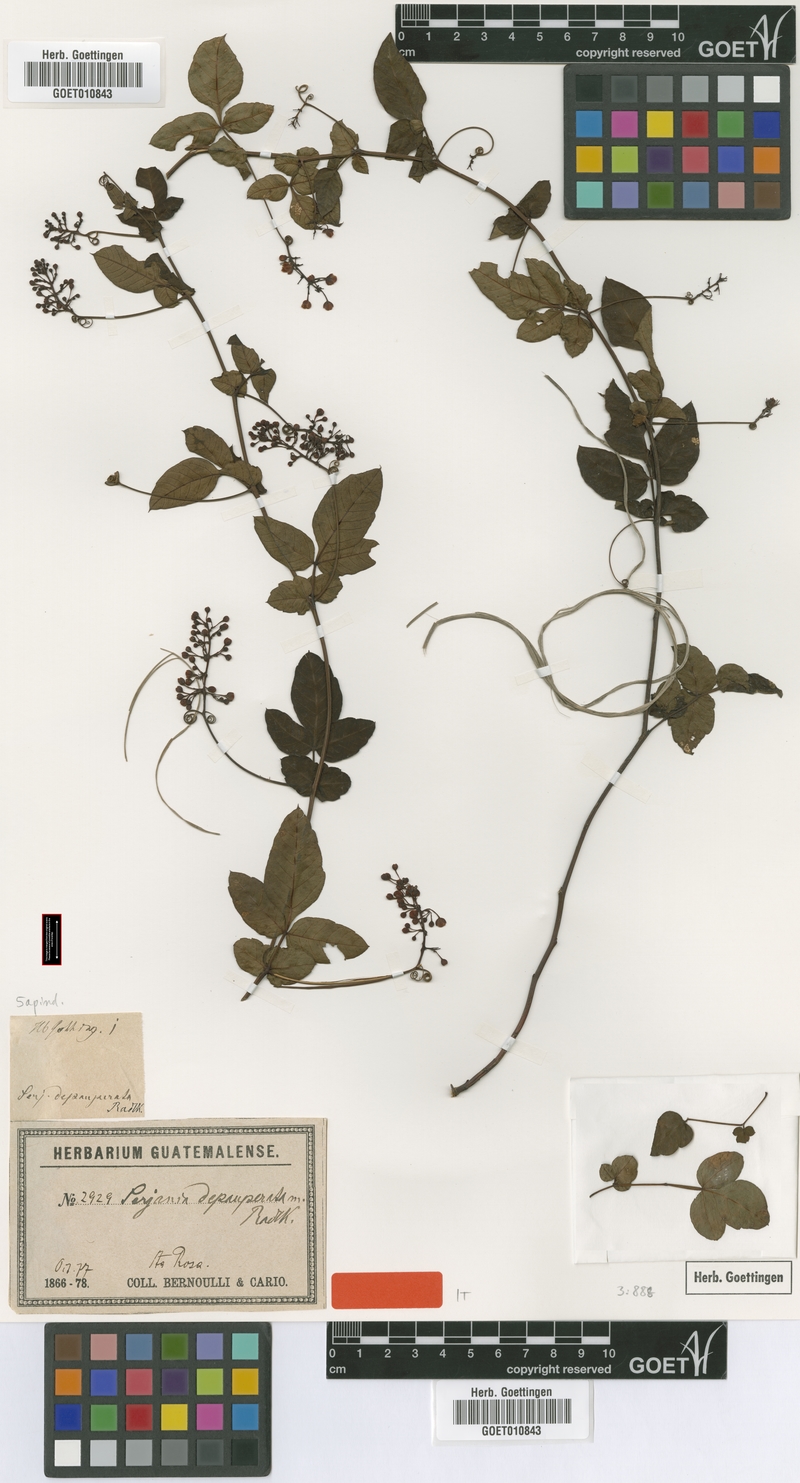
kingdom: Plantae
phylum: Tracheophyta
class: Magnoliopsida
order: Sapindales
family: Sapindaceae
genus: Serjania
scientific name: Serjania depauperata
